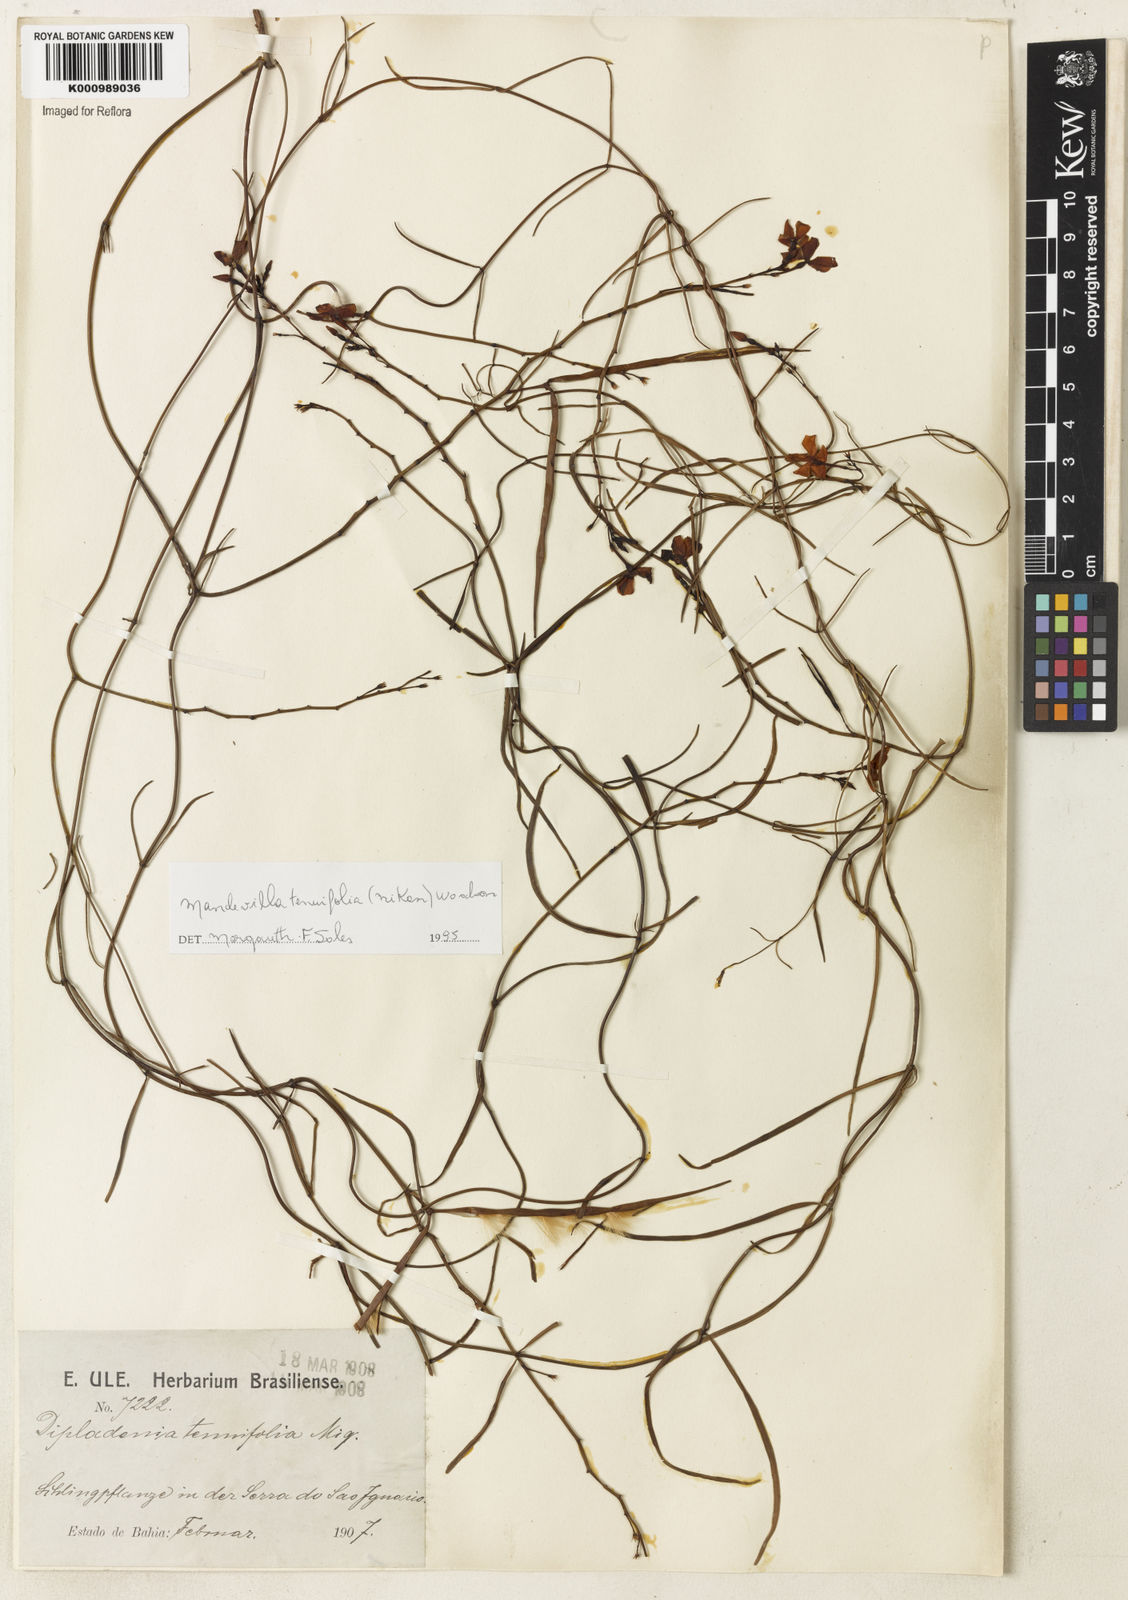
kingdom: Plantae
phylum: Tracheophyta
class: Magnoliopsida
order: Gentianales
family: Apocynaceae
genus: Mandevilla
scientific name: Mandevilla tenuifolia
